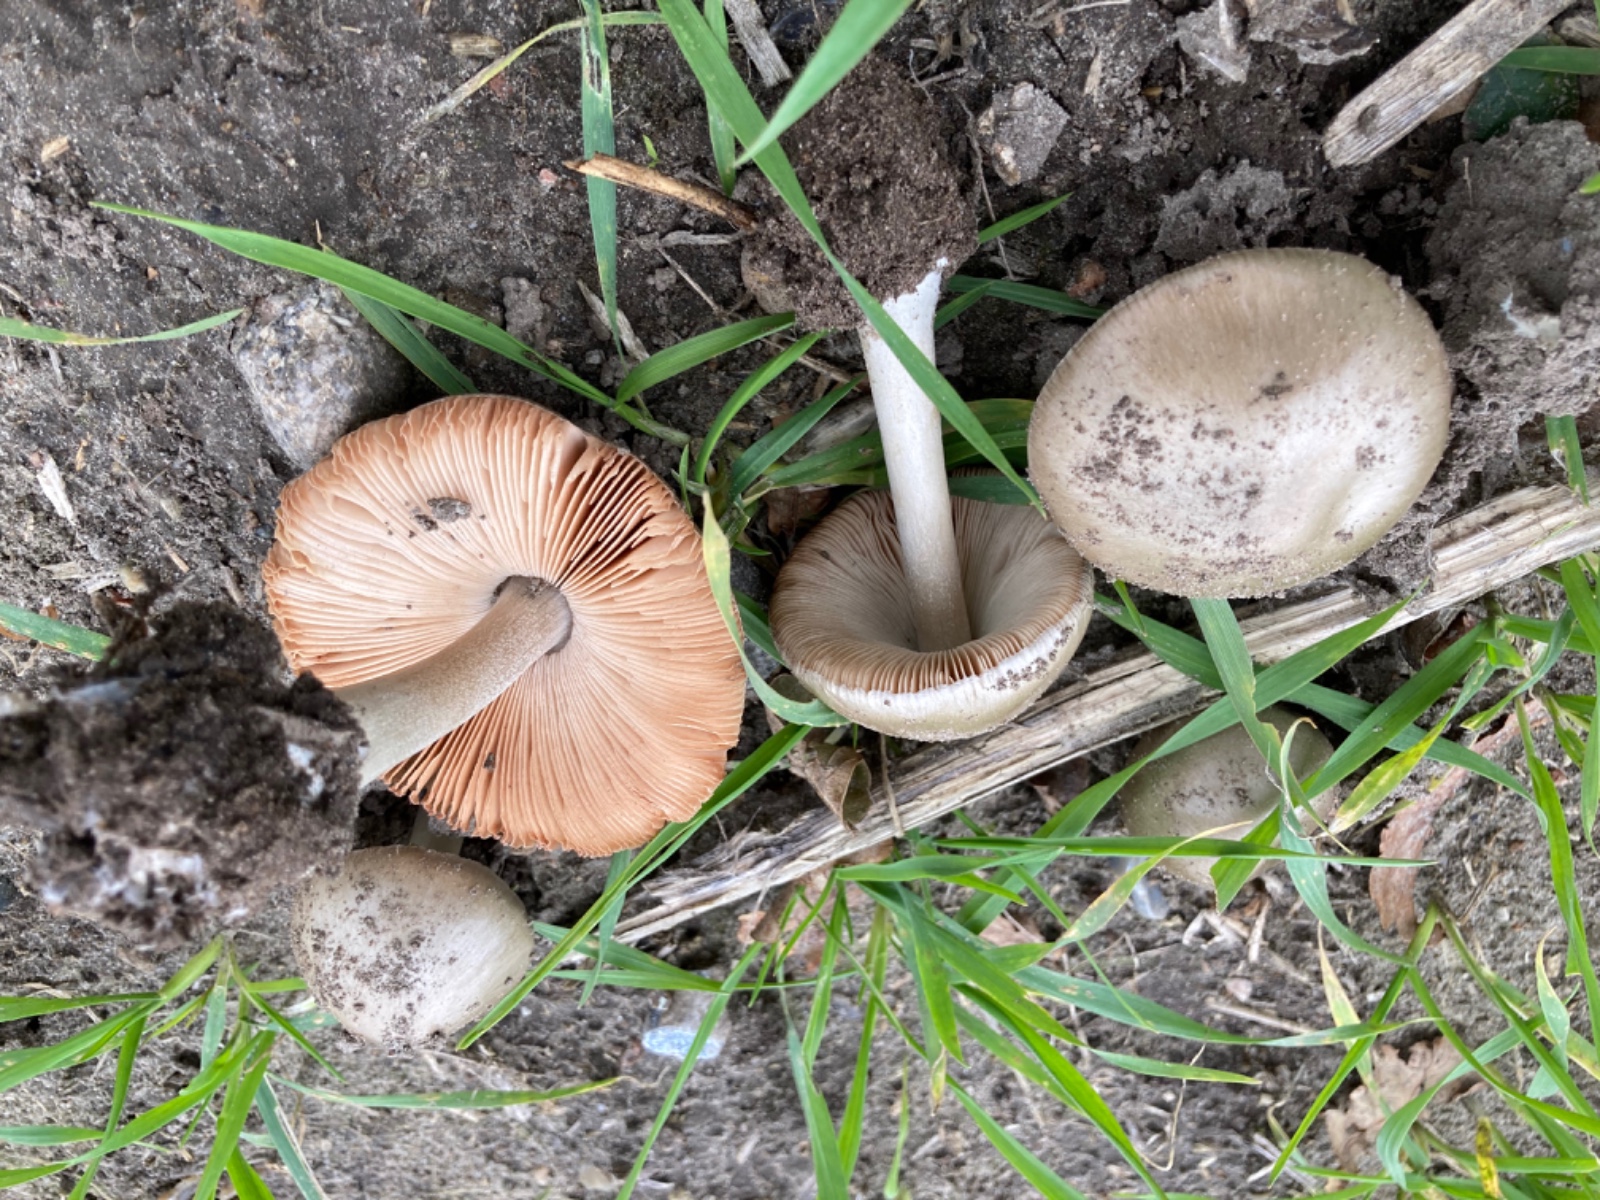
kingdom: Fungi
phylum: Basidiomycota
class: Agaricomycetes
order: Agaricales
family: Pluteaceae
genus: Volvopluteus
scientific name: Volvopluteus gloiocephalus
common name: høj posesvamp
